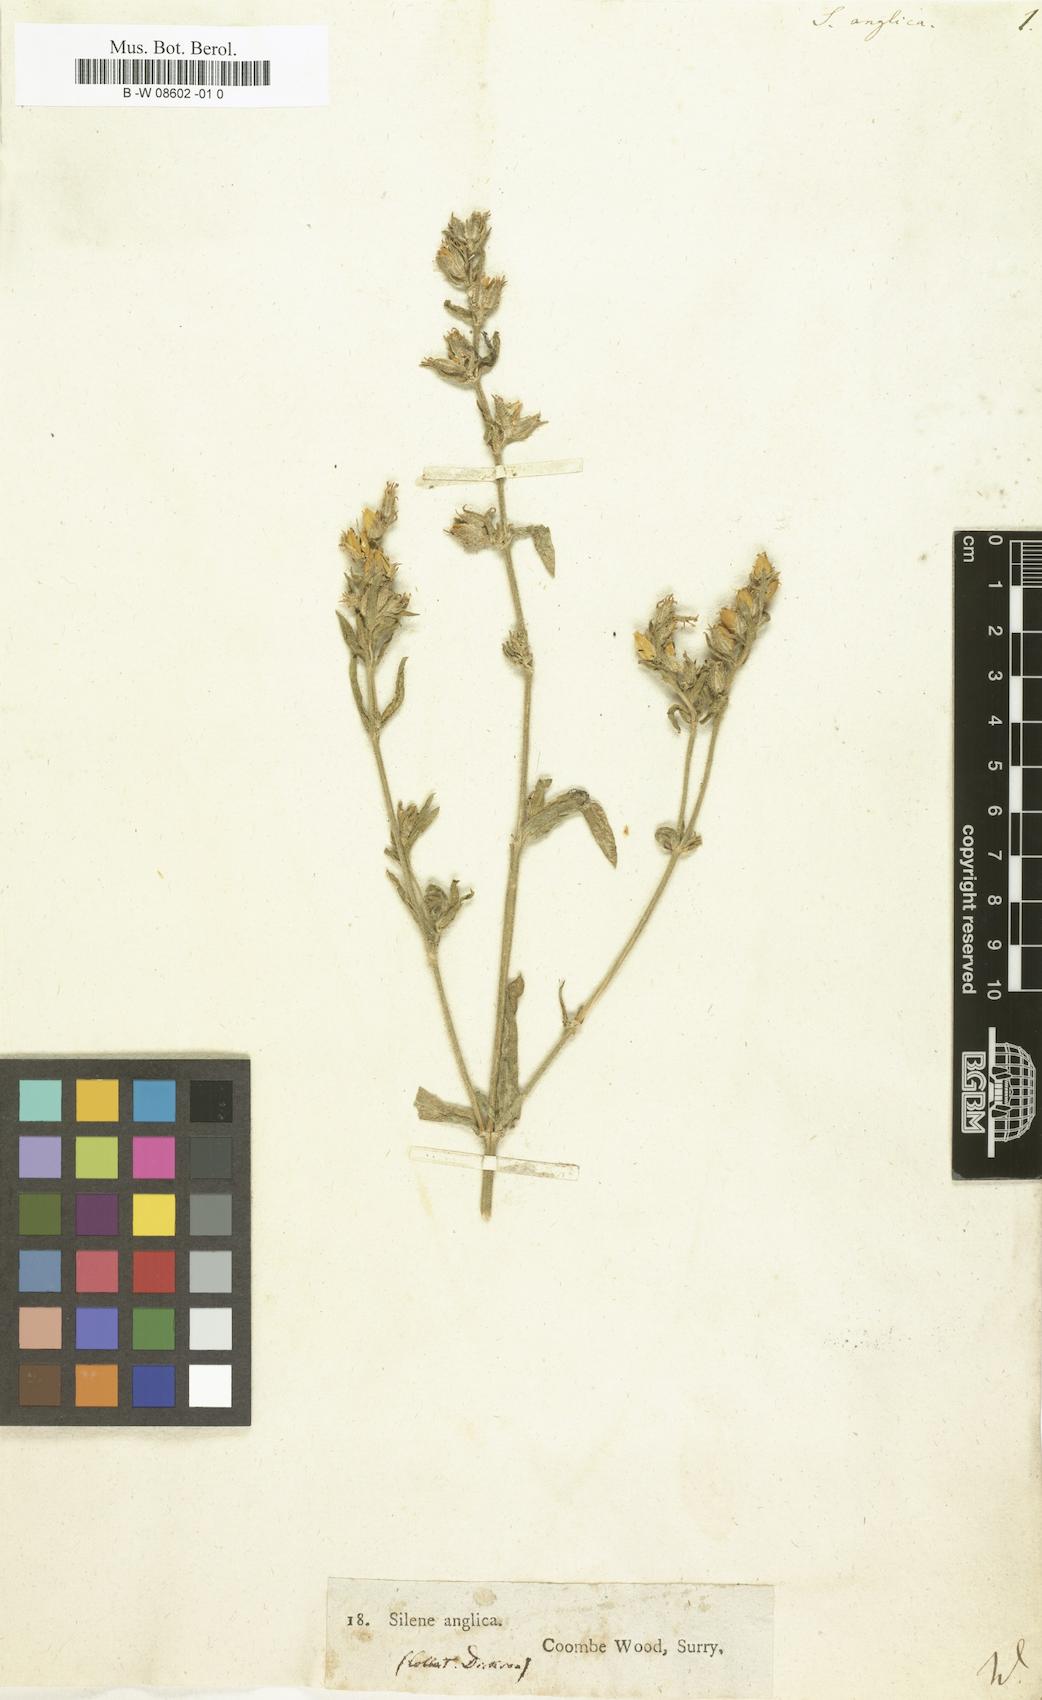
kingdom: Plantae
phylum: Tracheophyta
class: Magnoliopsida
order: Caryophyllales
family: Caryophyllaceae
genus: Silene
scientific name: Silene gallica
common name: Small-flowered catchfly
